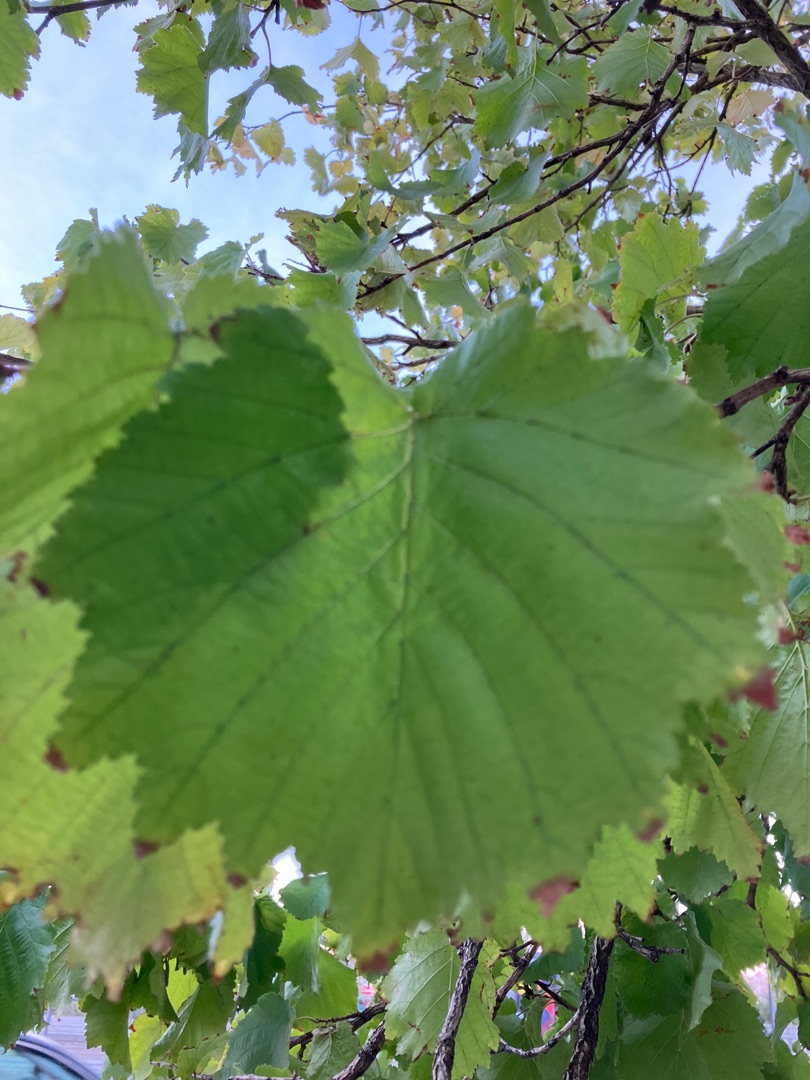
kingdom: Plantae
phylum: Tracheophyta
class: Magnoliopsida
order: Fagales
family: Betulaceae
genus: Corylus
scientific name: Corylus avellana
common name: Hassel
